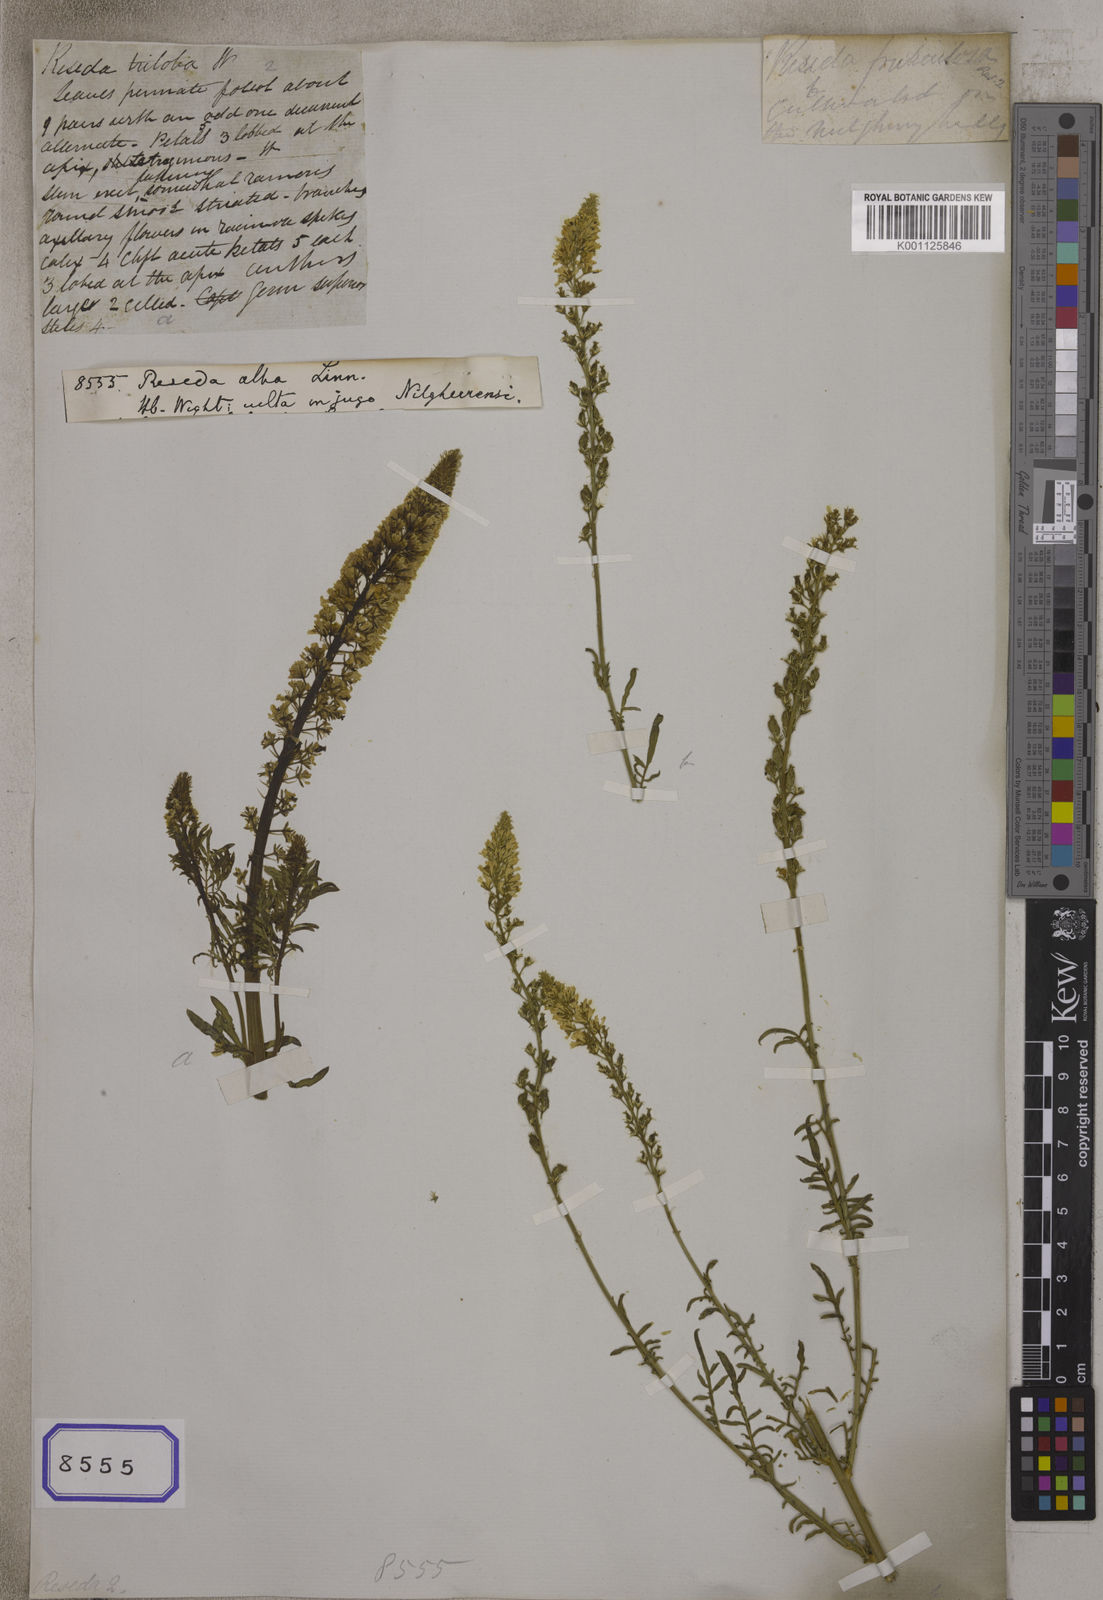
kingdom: Plantae
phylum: Tracheophyta
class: Magnoliopsida
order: Brassicales
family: Resedaceae
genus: Reseda
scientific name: Reseda alba
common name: White mignonette
